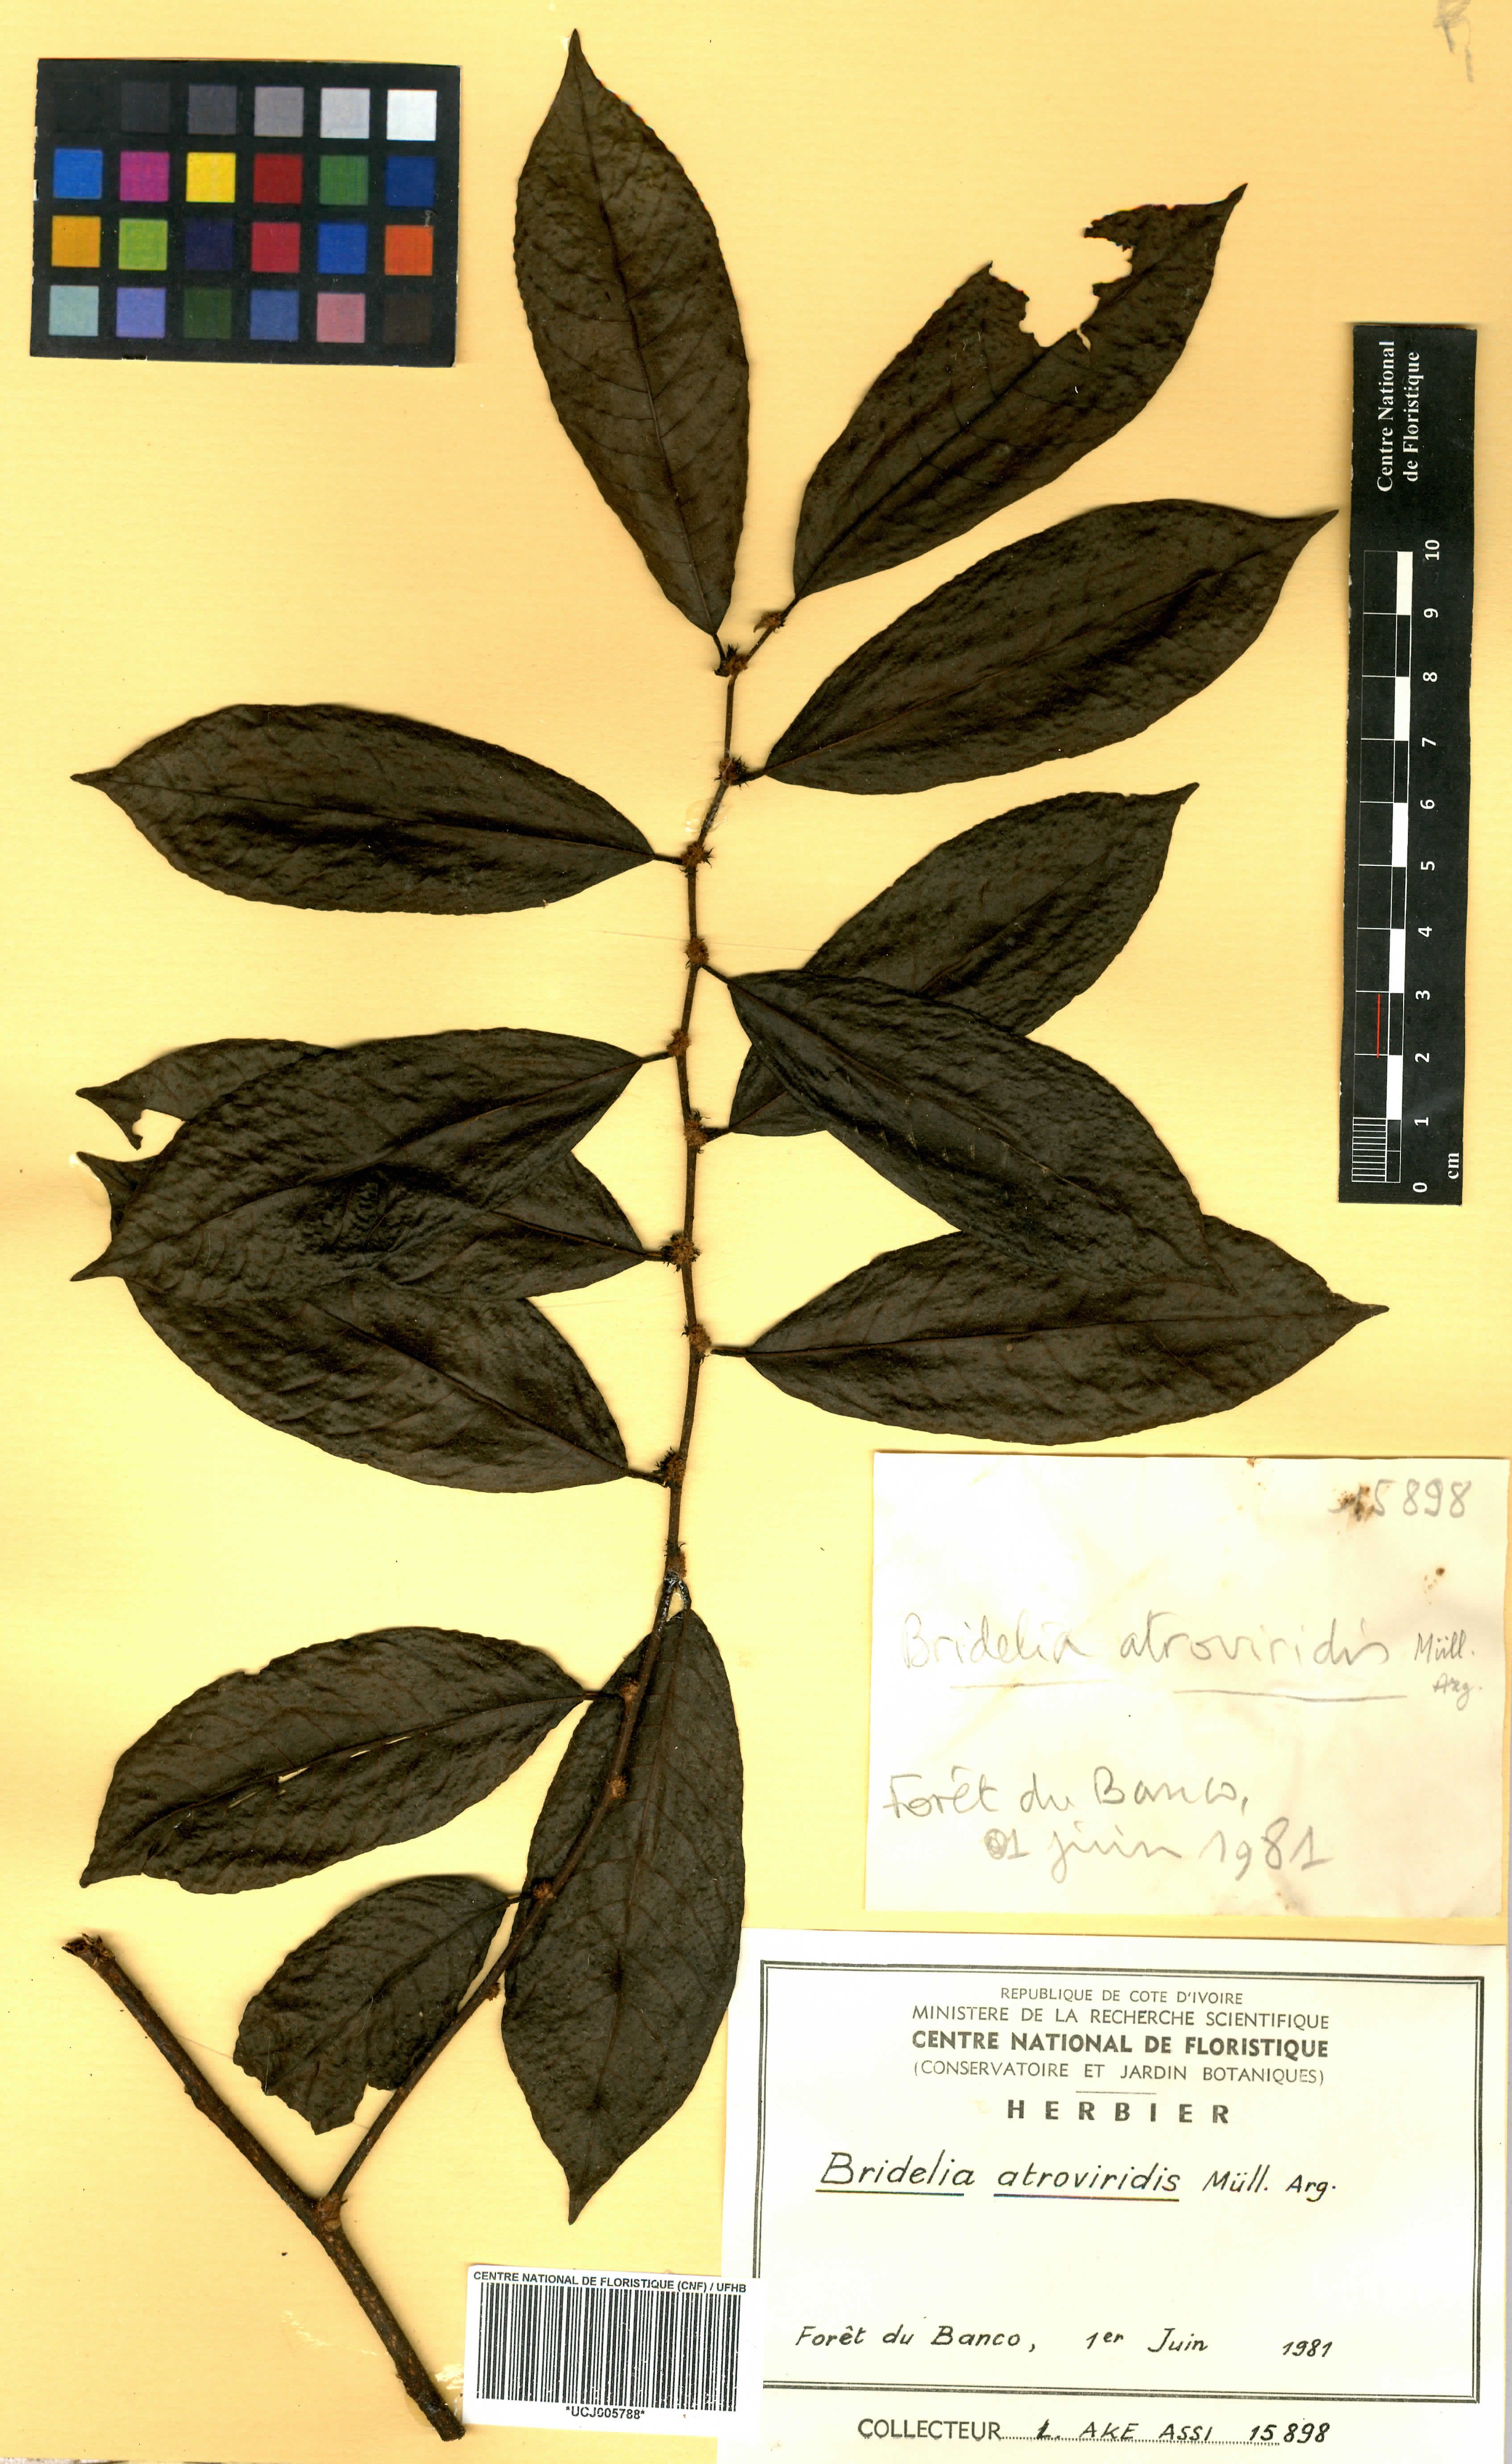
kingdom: Plantae
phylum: Tracheophyta
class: Magnoliopsida
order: Malpighiales
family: Phyllanthaceae
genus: Bridelia
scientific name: Bridelia atroviridis
